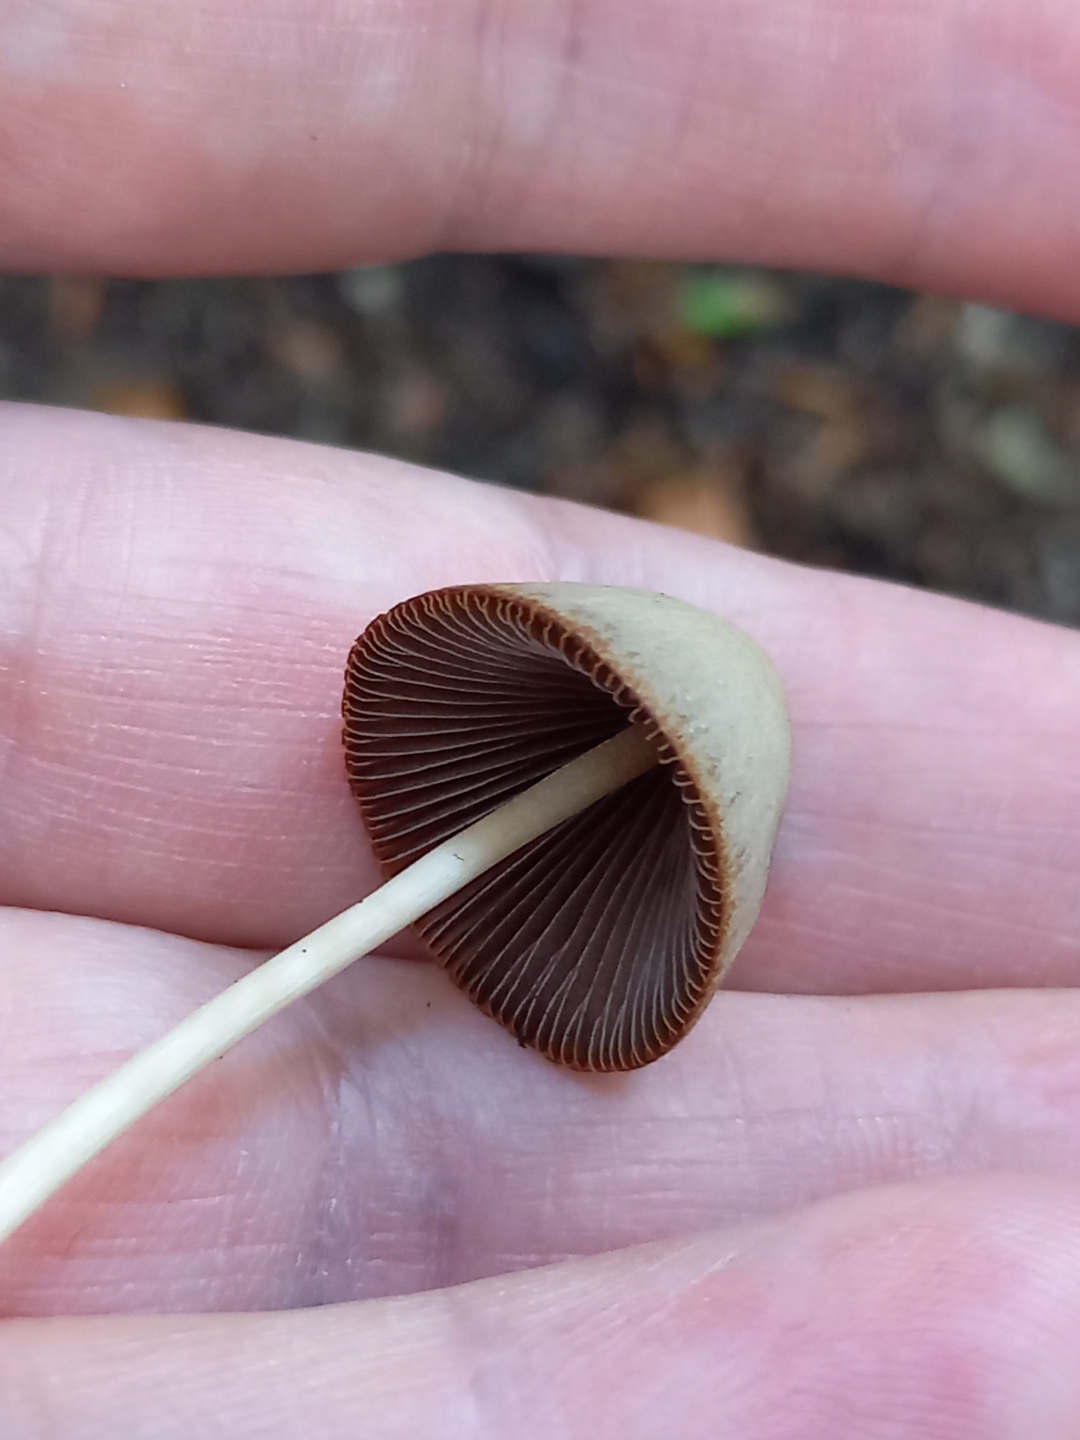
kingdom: Fungi
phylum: Basidiomycota
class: Agaricomycetes
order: Agaricales
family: Psathyrellaceae
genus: Parasola
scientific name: Parasola conopilea
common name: kegle-hjulhat
